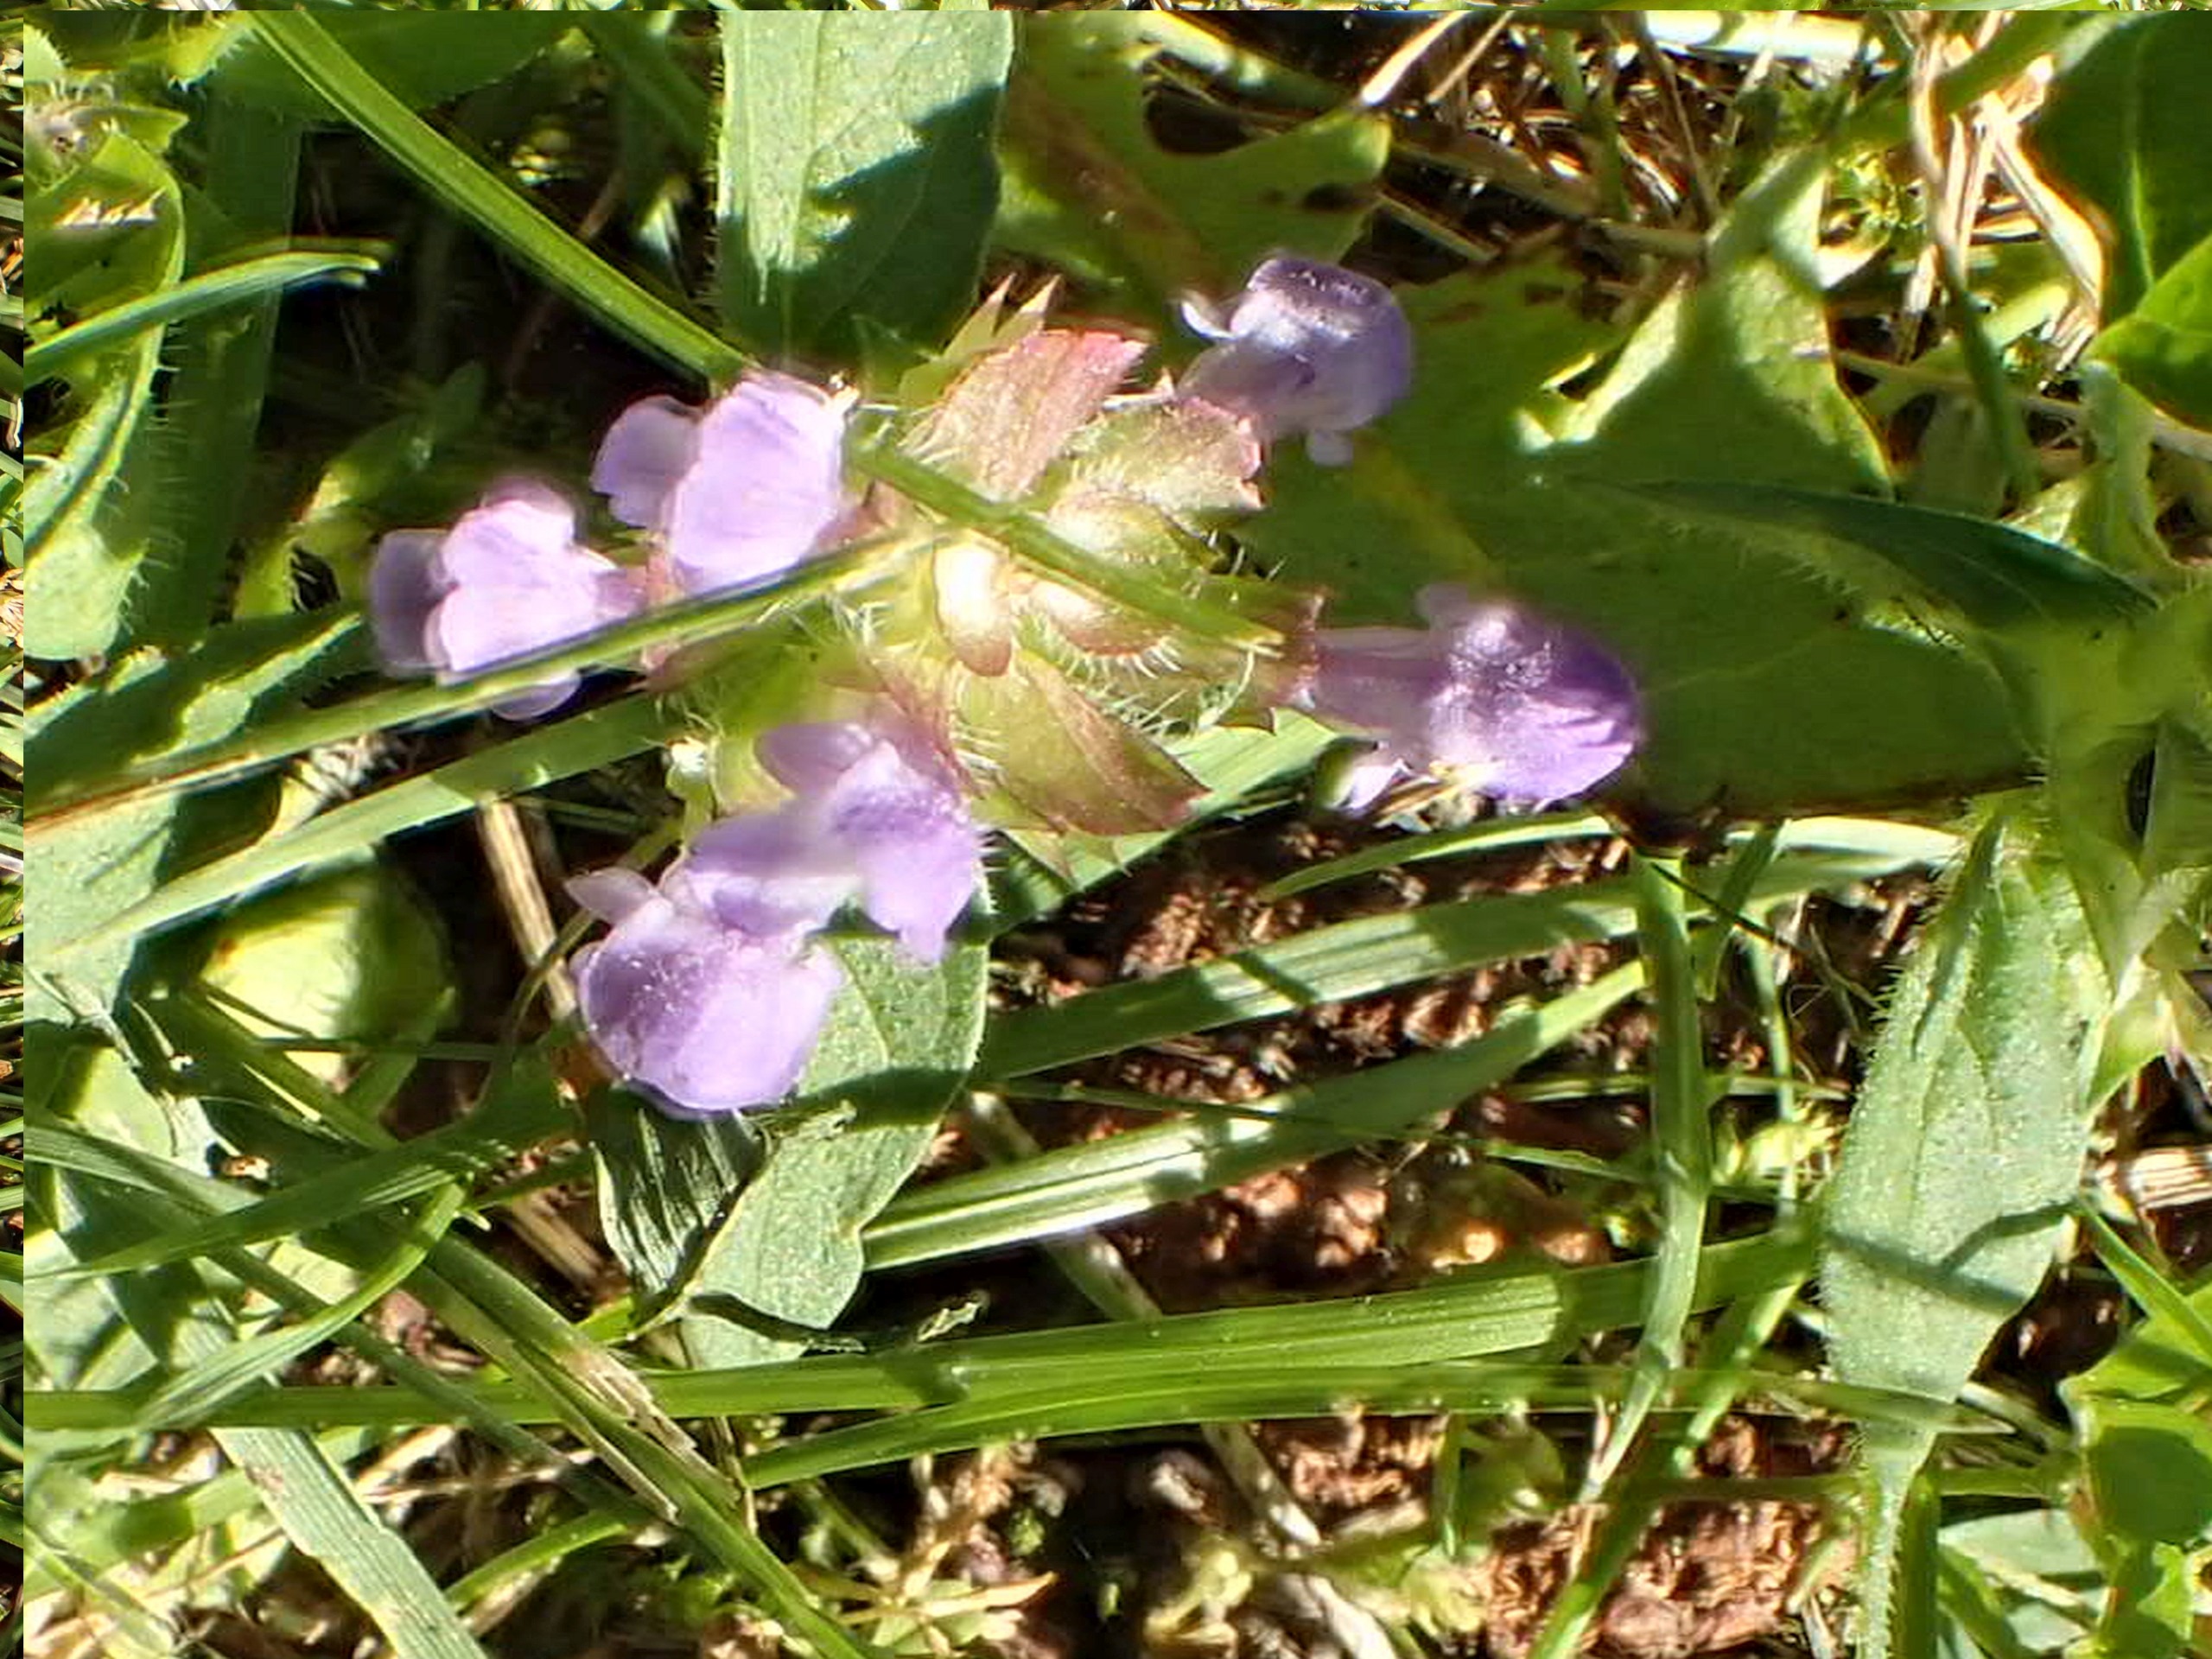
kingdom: Plantae
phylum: Tracheophyta
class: Magnoliopsida
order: Lamiales
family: Lamiaceae
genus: Prunella
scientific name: Prunella vulgaris
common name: Almindelig brunelle
